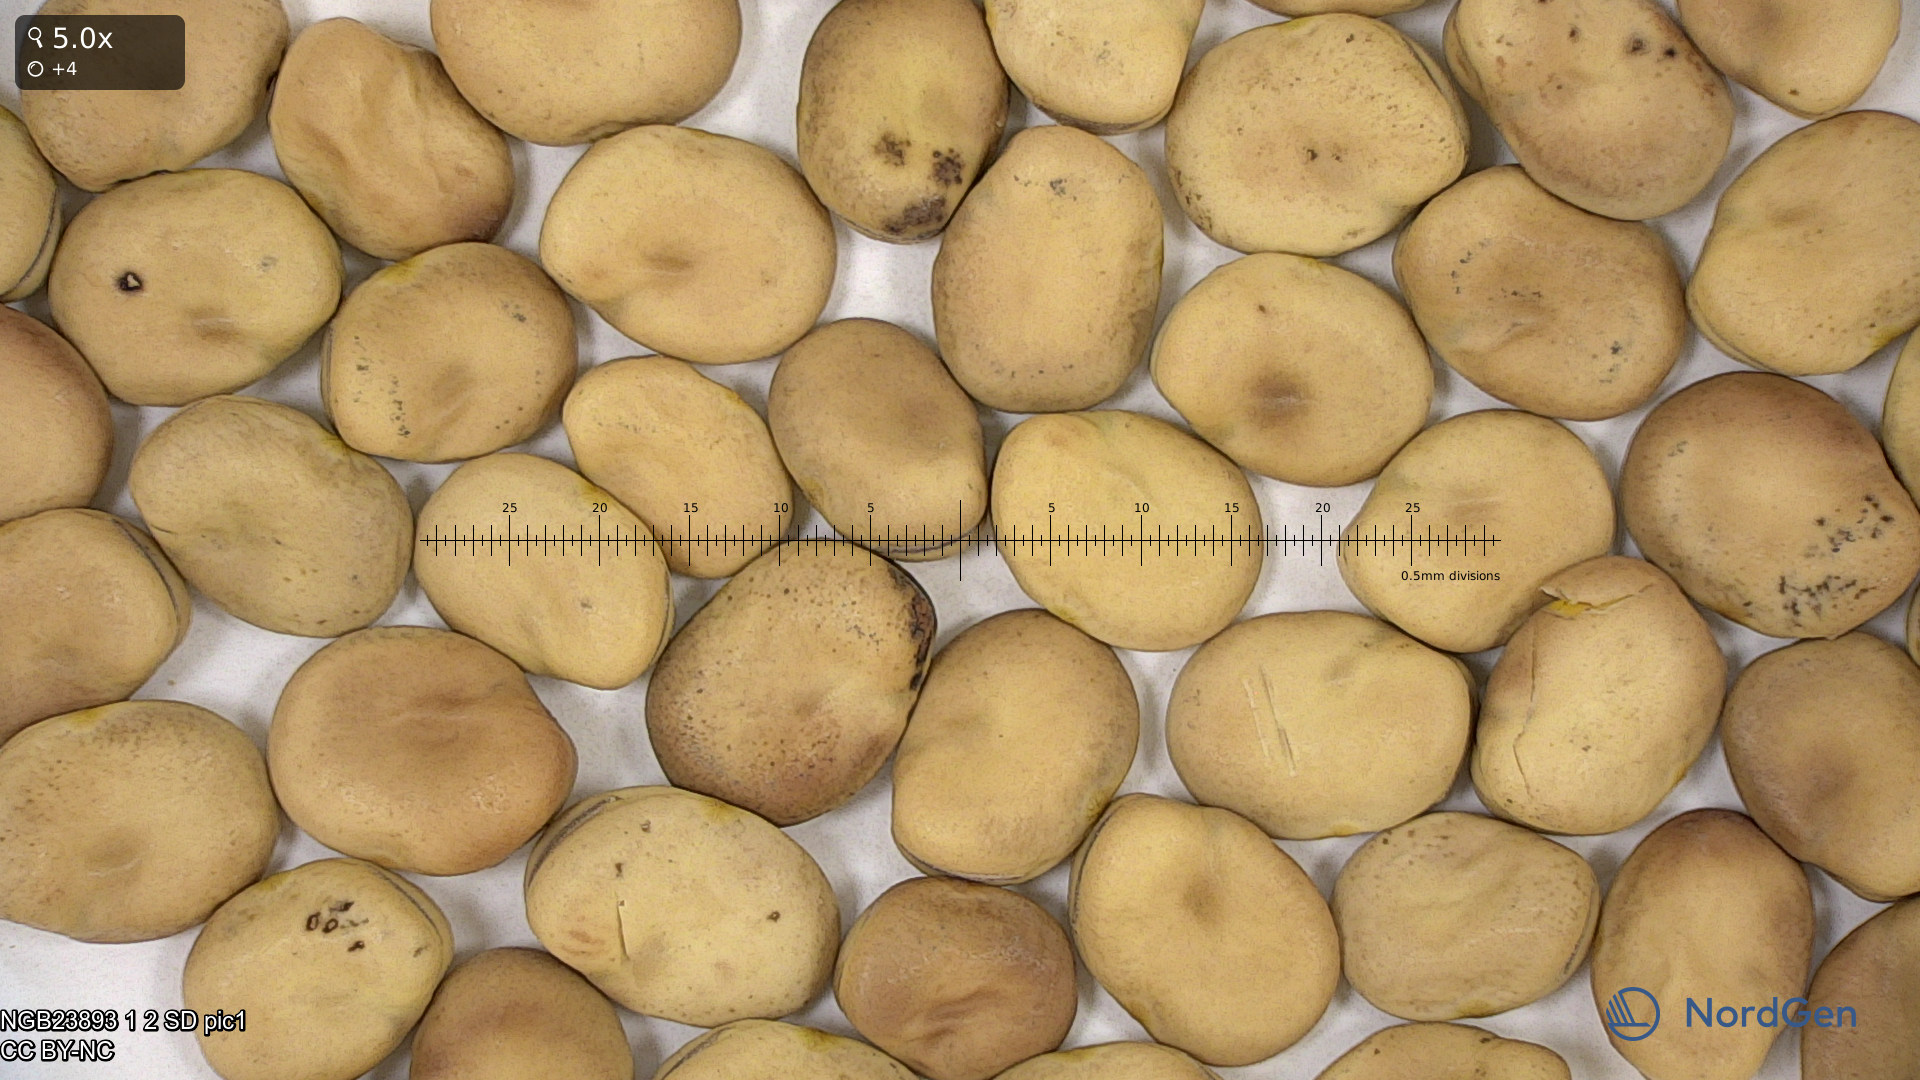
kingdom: Plantae
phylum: Tracheophyta
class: Magnoliopsida
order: Fabales
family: Fabaceae
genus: Vicia
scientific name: Vicia faba
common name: Broad bean
